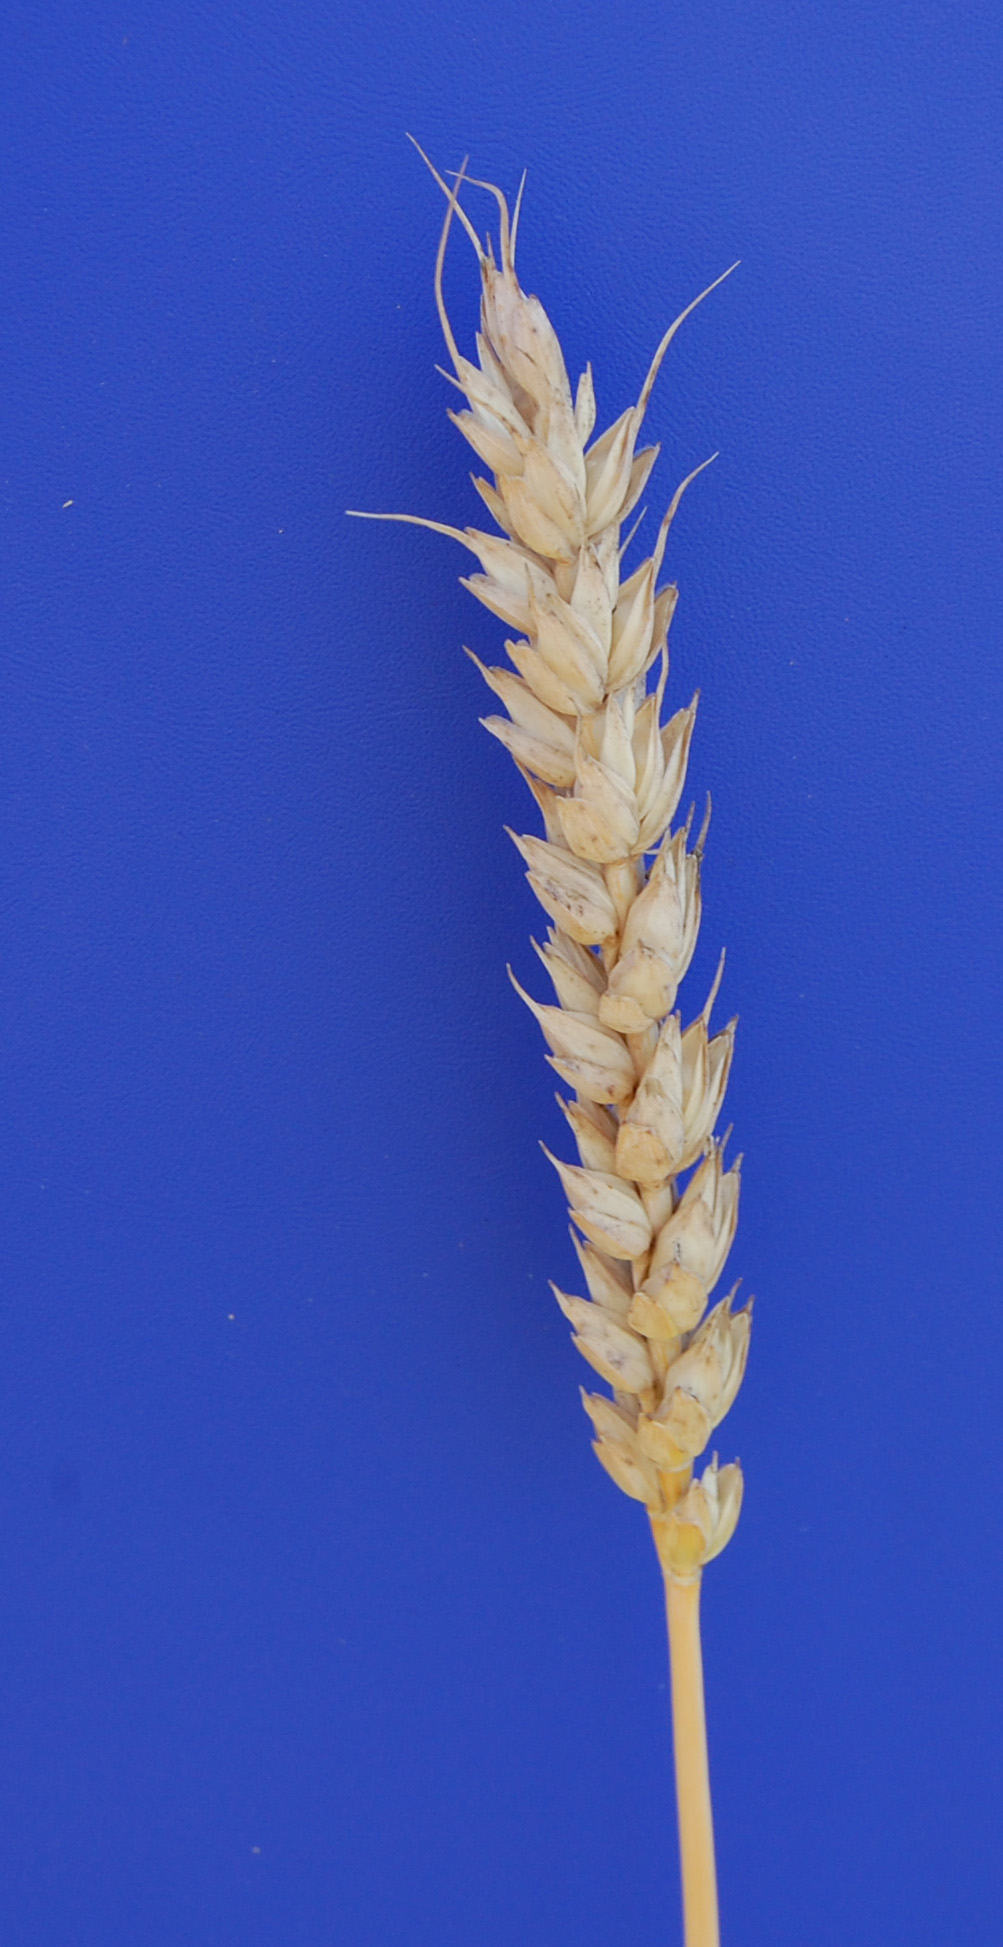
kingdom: Plantae
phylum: Tracheophyta
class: Liliopsida
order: Poales
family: Poaceae
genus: Triticum
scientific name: Triticum aestivum
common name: Common wheat
